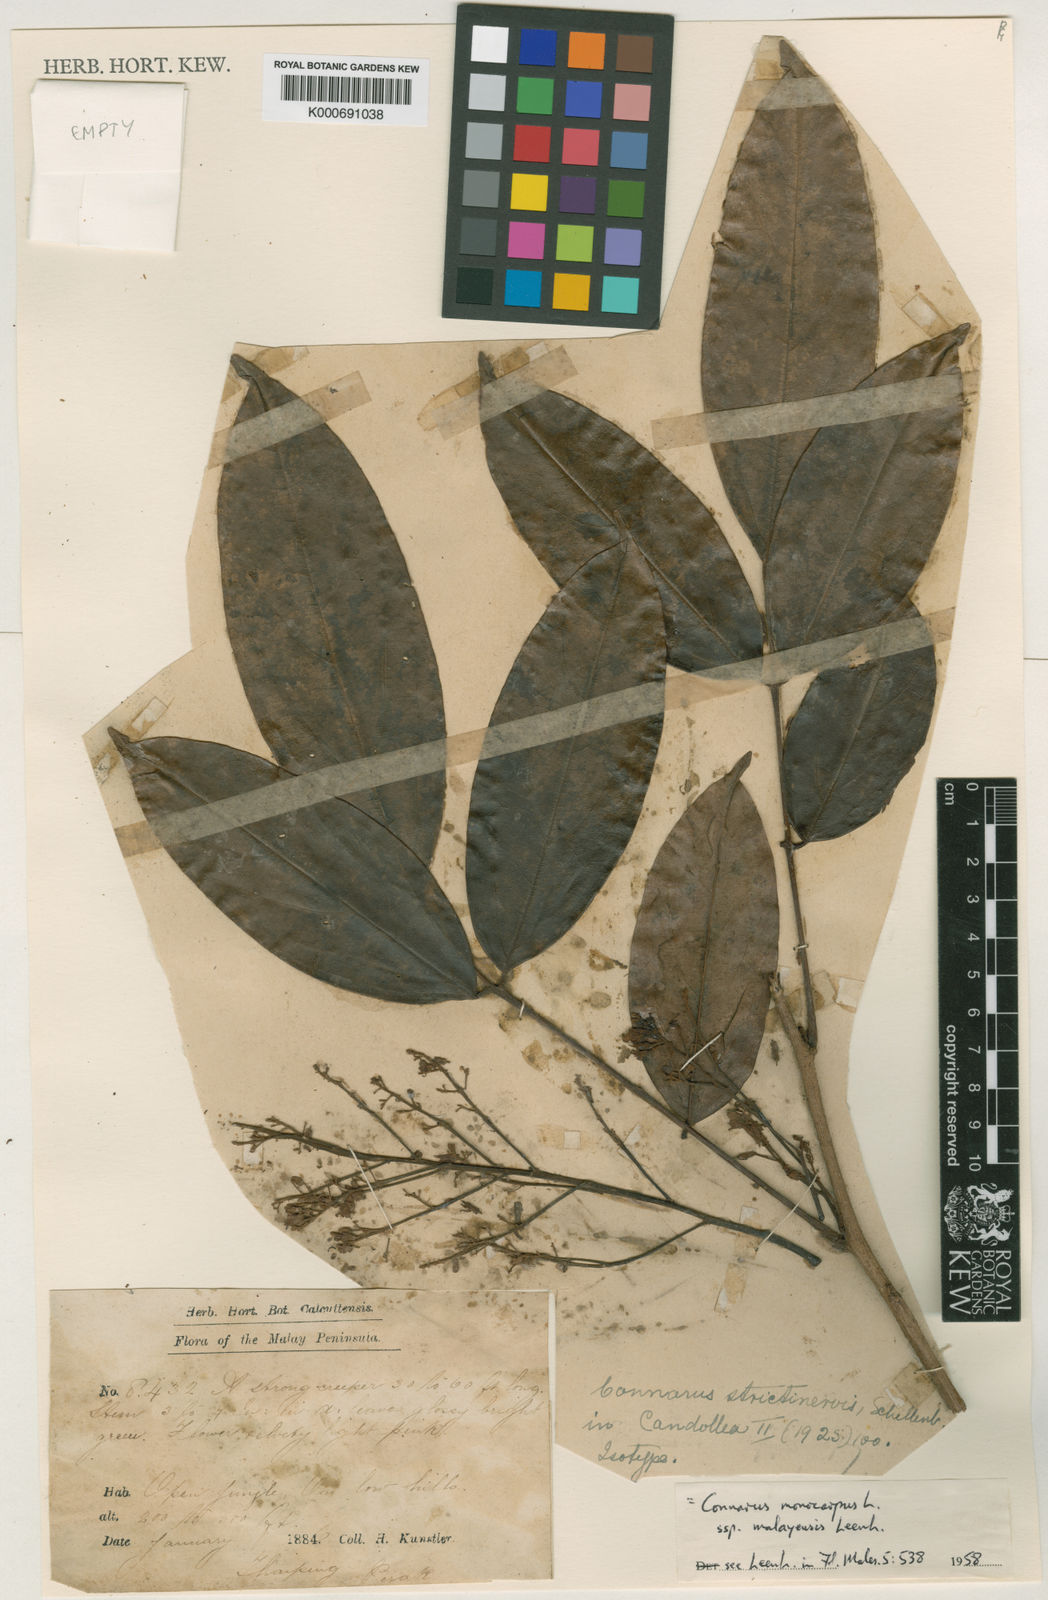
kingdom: Plantae
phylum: Tracheophyta
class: Magnoliopsida
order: Oxalidales
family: Connaraceae
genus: Connarus
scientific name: Connarus semidecandrus
